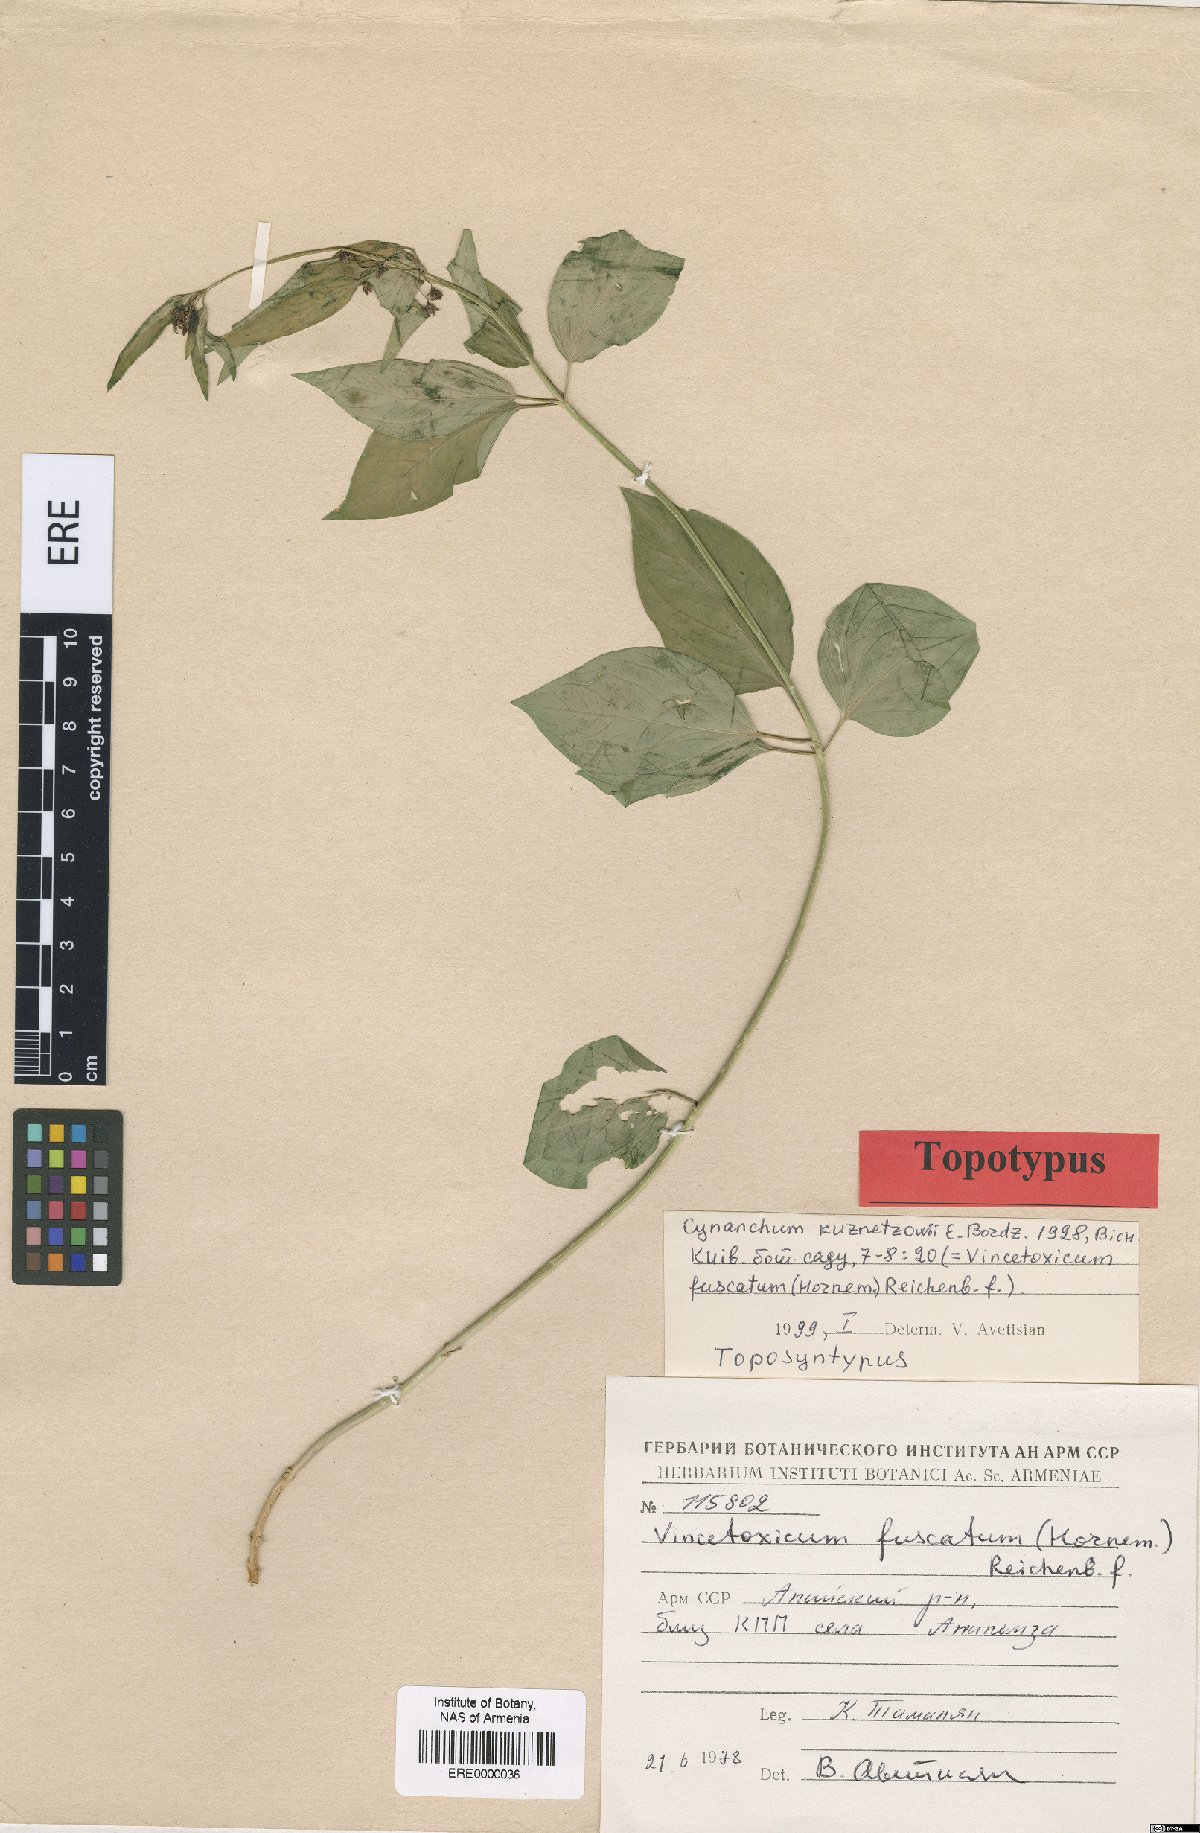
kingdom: Plantae
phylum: Tracheophyta
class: Magnoliopsida
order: Gentianales
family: Apocynaceae
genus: Vincetoxicum
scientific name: Vincetoxicum fuscatum
